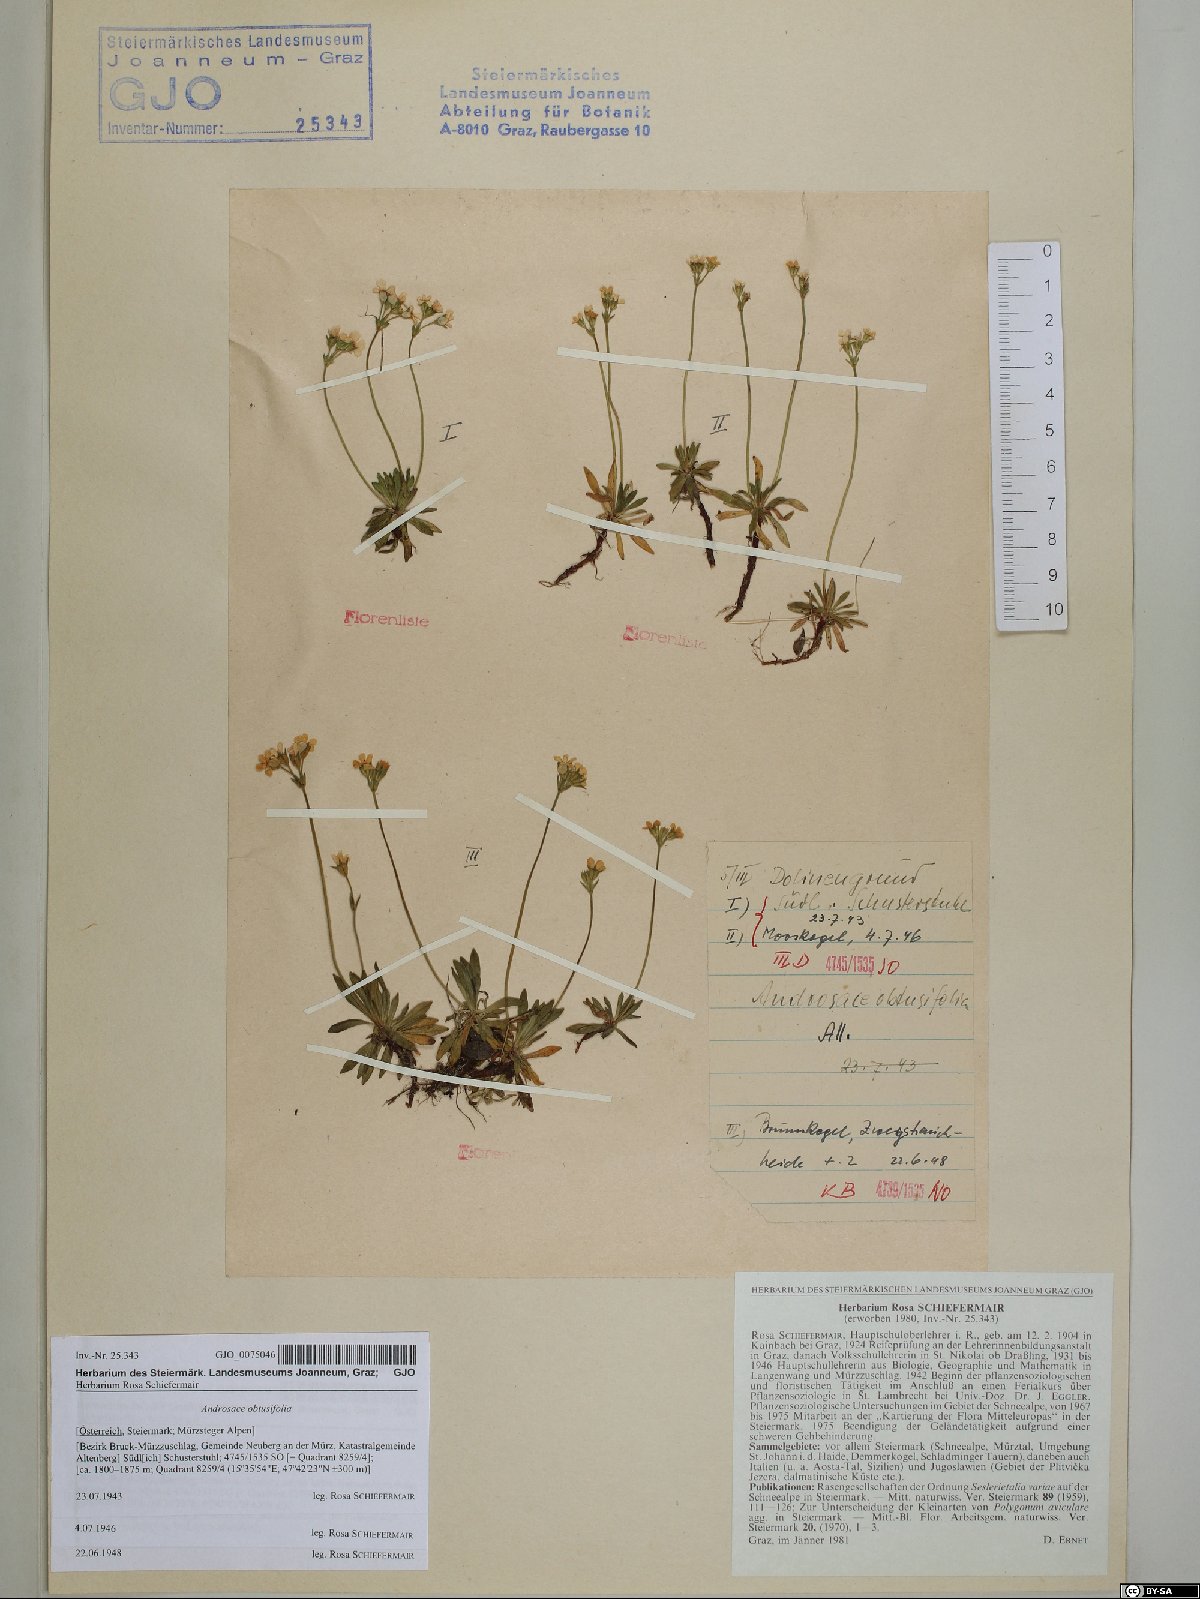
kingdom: Plantae
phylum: Tracheophyta
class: Magnoliopsida
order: Ericales
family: Primulaceae
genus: Androsace
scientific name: Androsace obtusifolia
